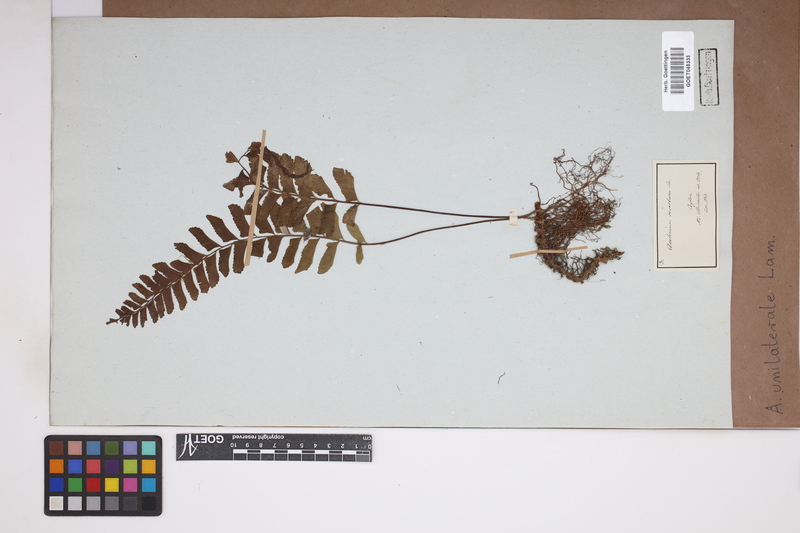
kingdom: Plantae
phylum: Tracheophyta
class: Polypodiopsida
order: Polypodiales
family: Aspleniaceae
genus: Hymenasplenium
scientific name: Hymenasplenium unilaterale
